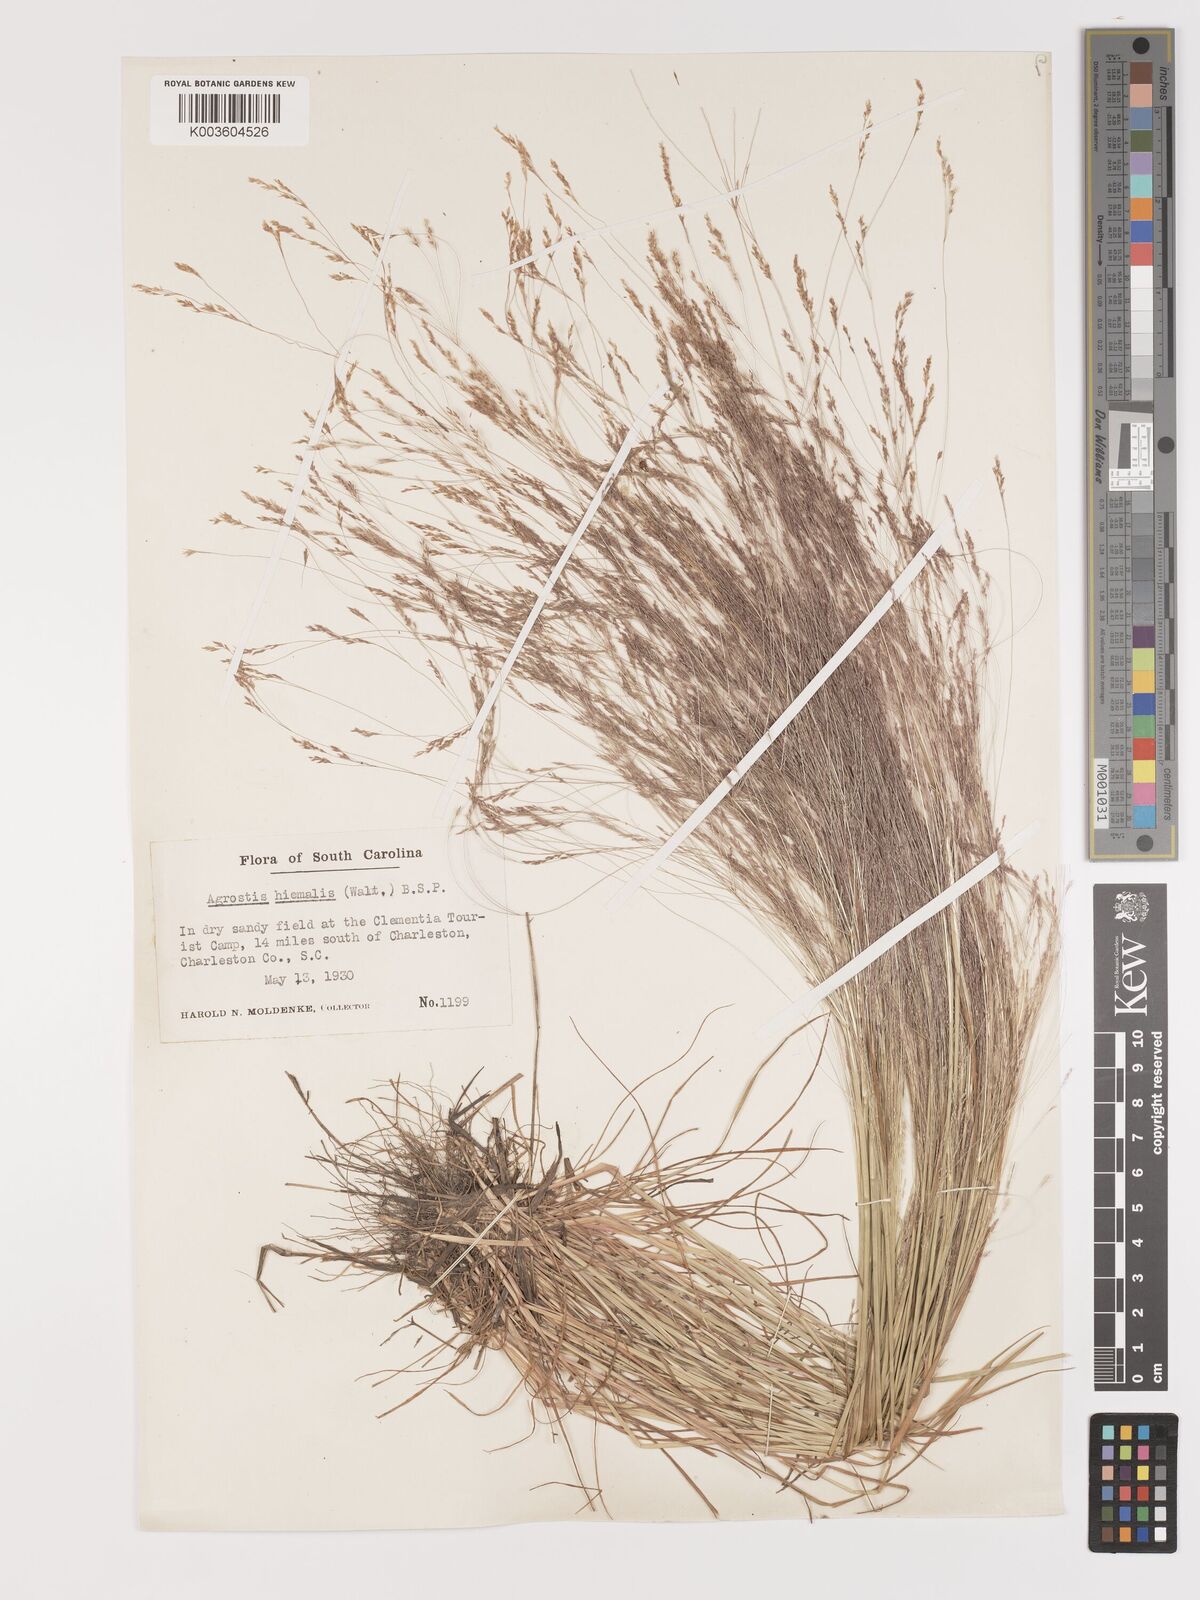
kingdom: Plantae
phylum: Tracheophyta
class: Liliopsida
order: Poales
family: Poaceae
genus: Agrostis
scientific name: Agrostis hyemalis
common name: Small bent
